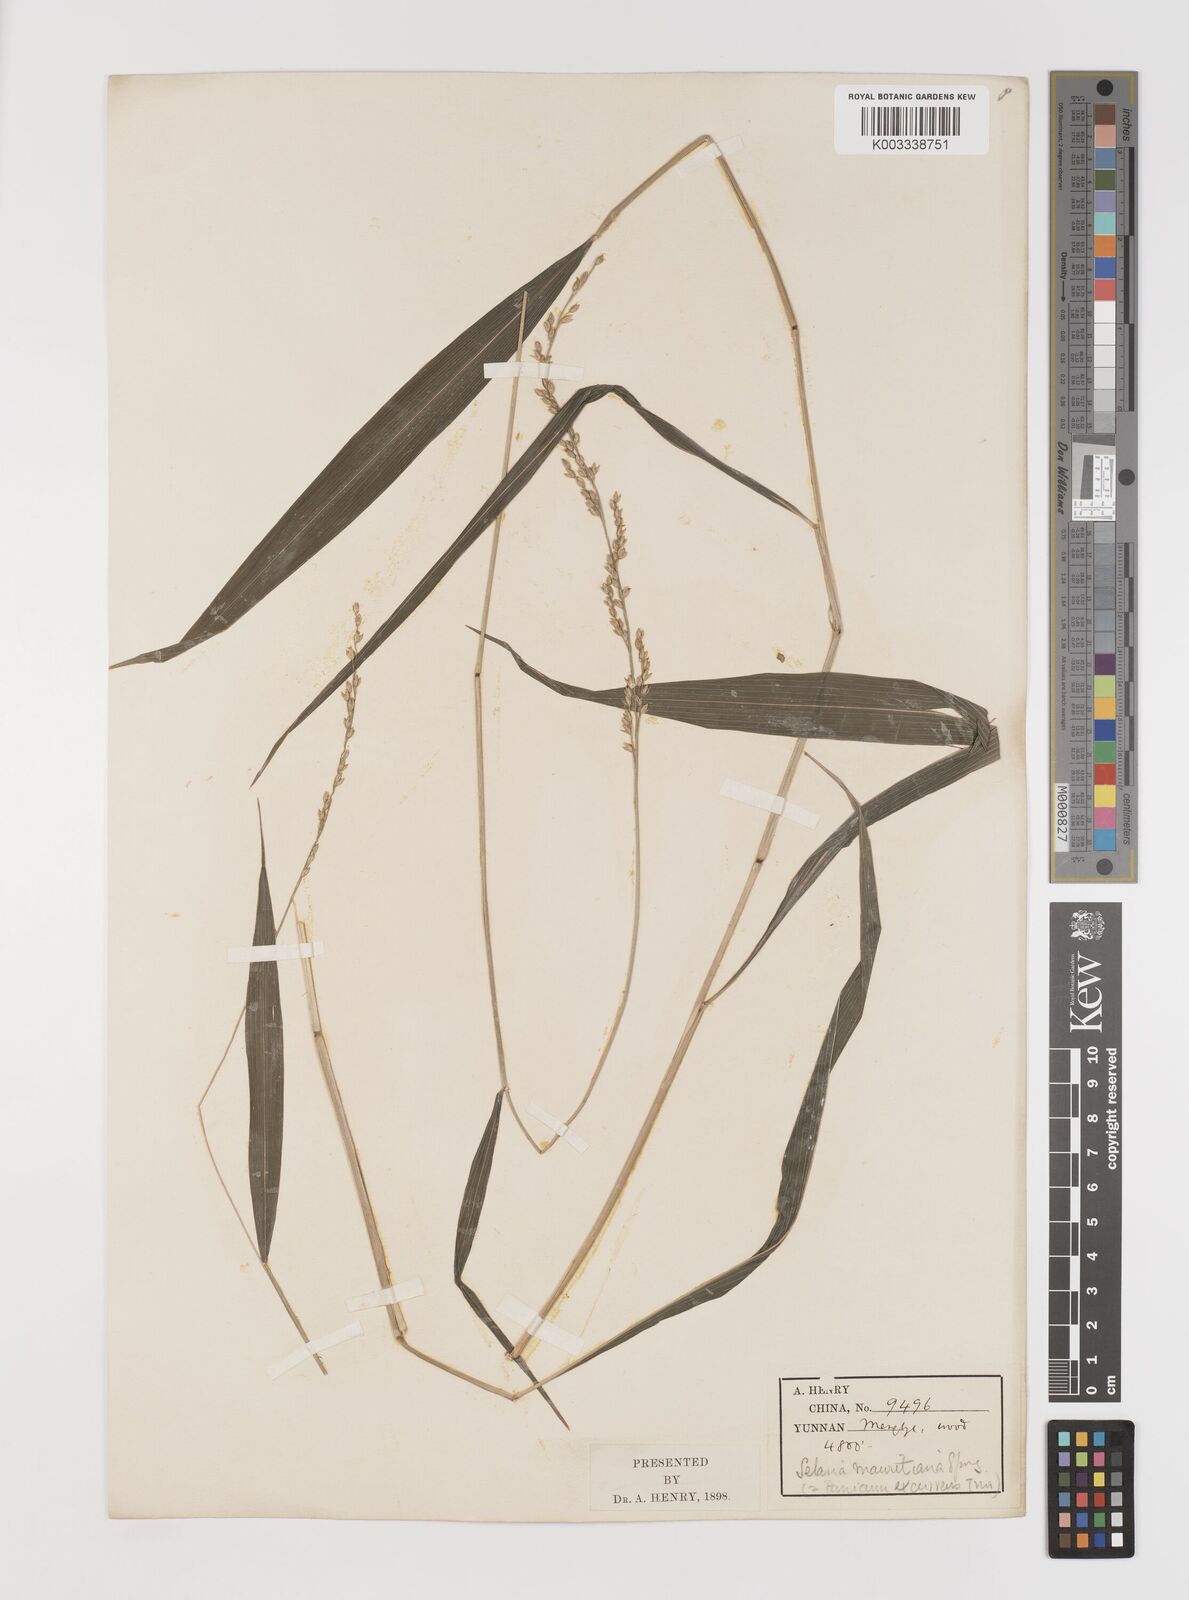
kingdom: Plantae
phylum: Tracheophyta
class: Liliopsida
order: Poales
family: Poaceae
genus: Setaria
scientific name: Setaria plicata
